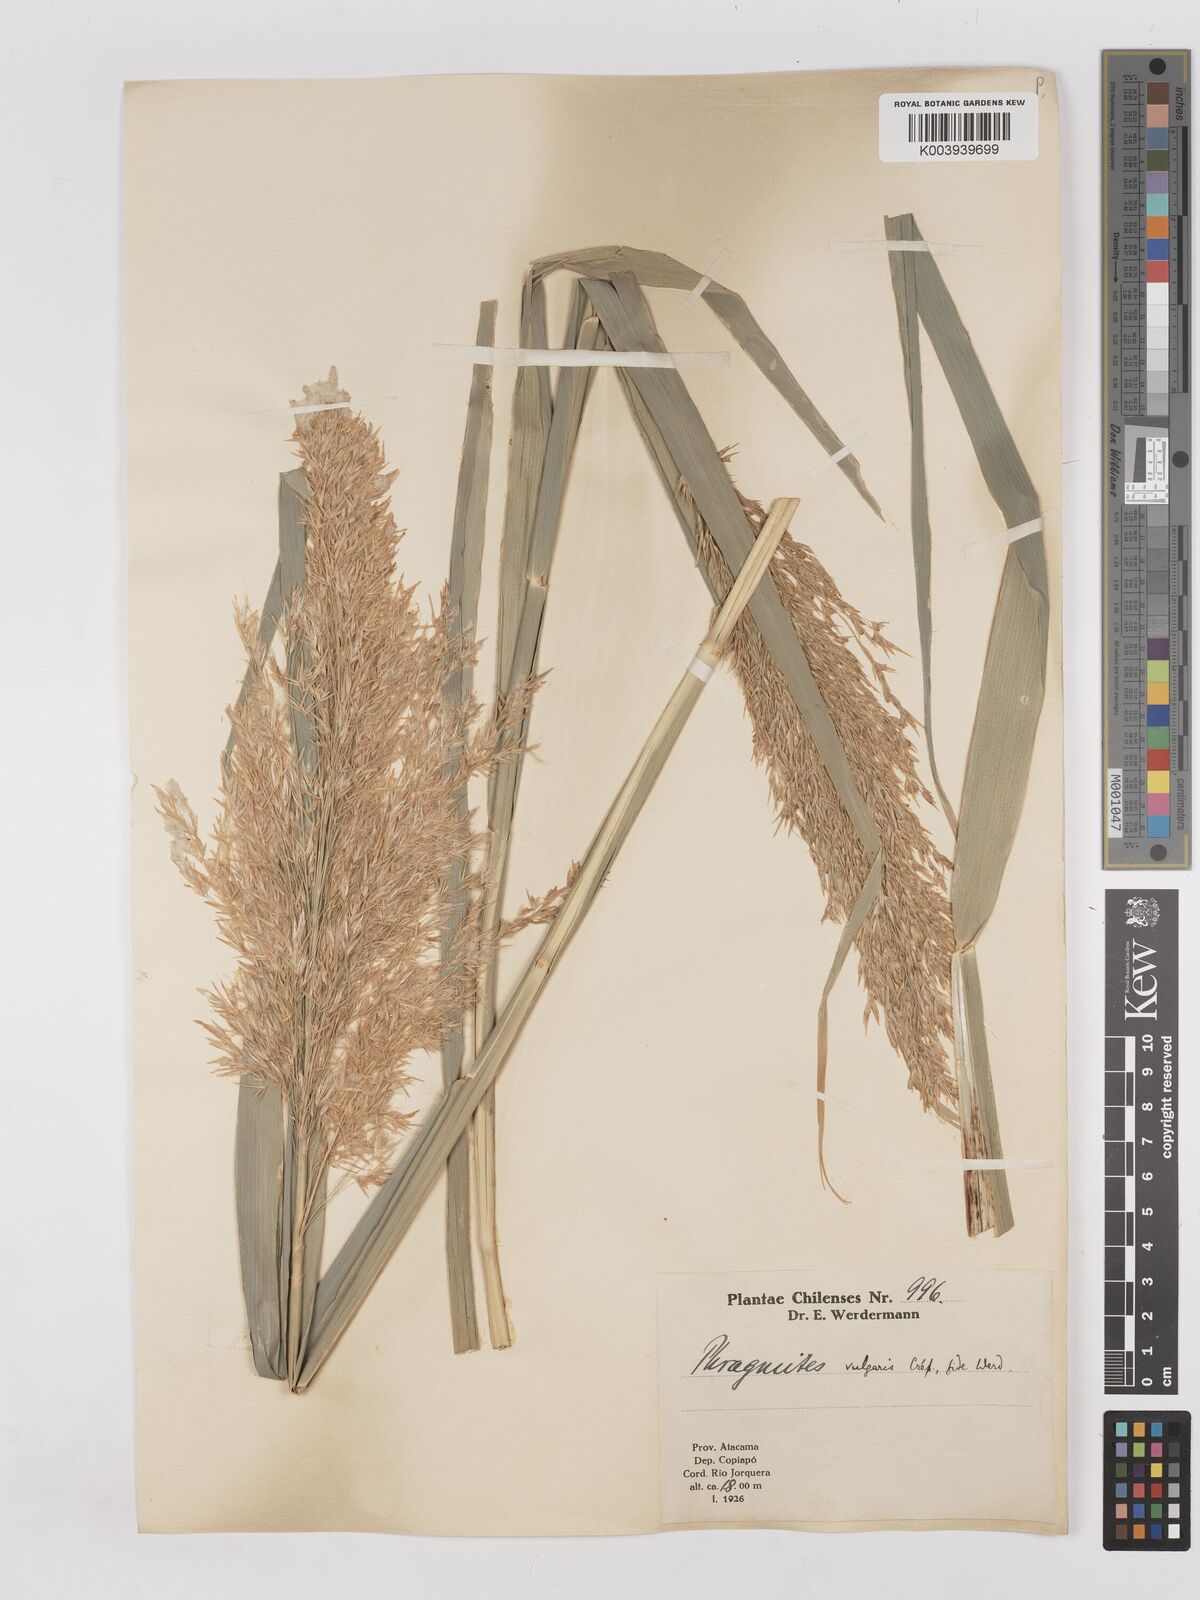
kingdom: Plantae
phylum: Tracheophyta
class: Liliopsida
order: Poales
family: Poaceae
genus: Phragmites
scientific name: Phragmites australis
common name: Common reed
